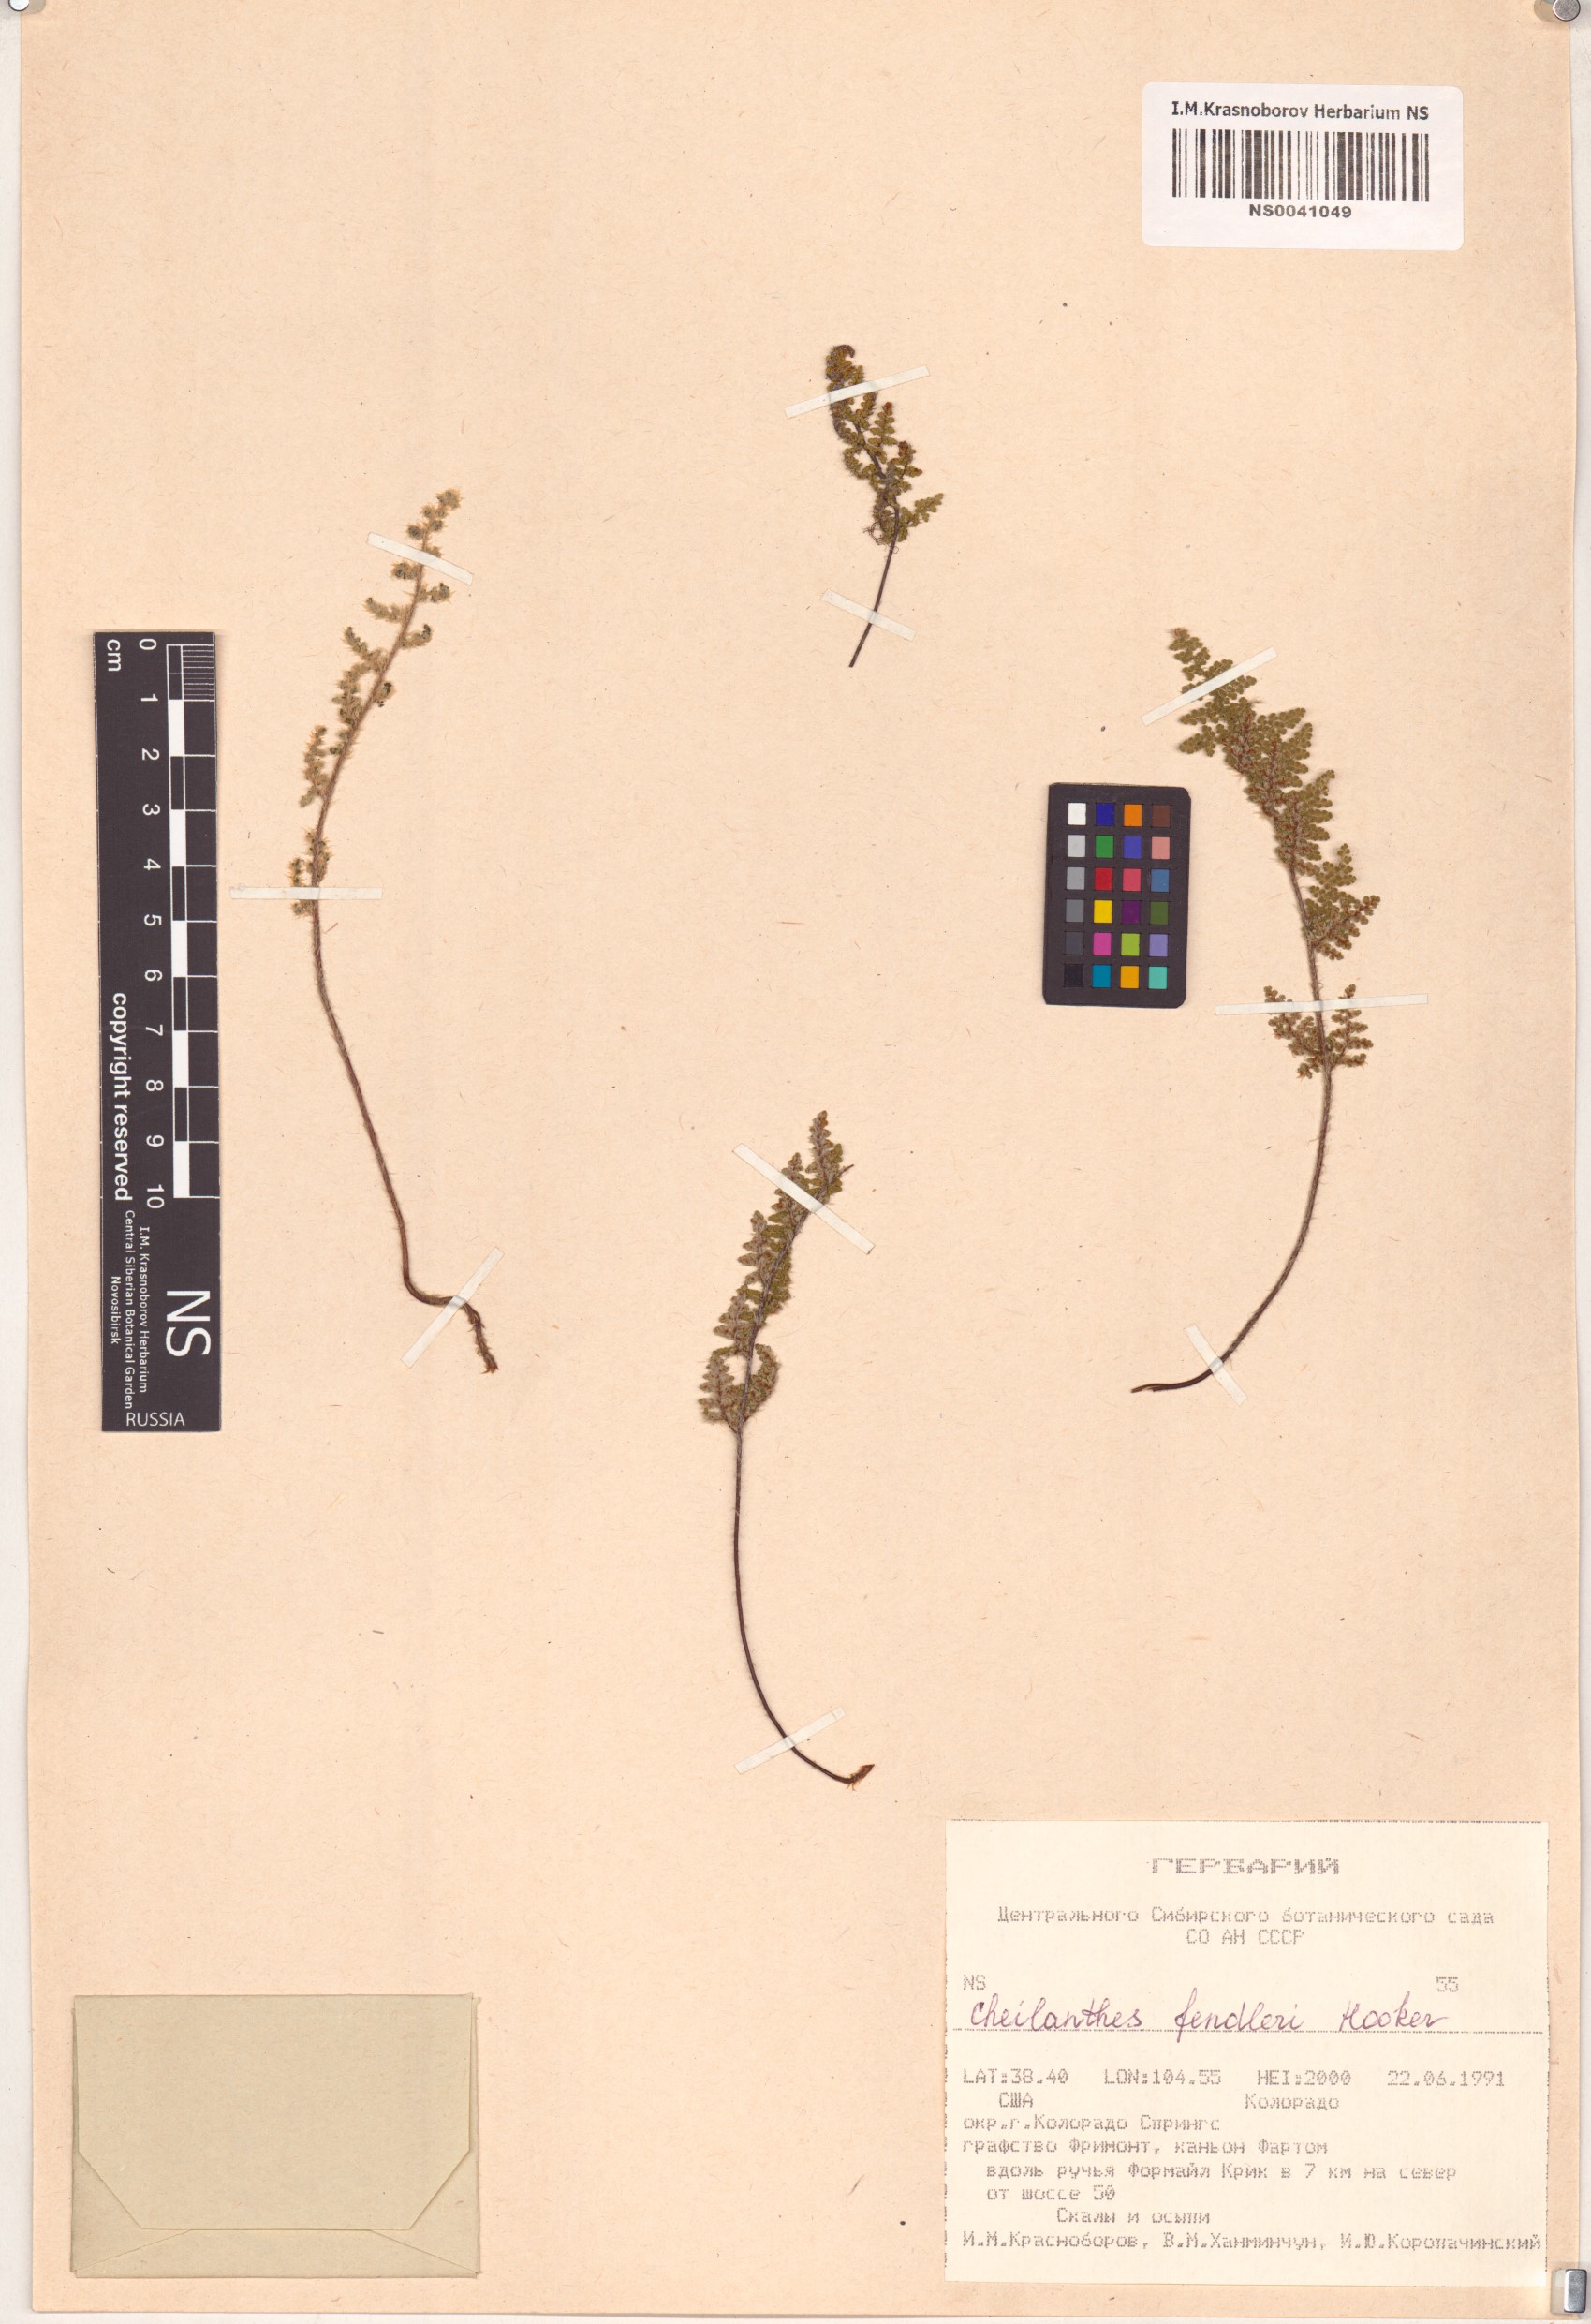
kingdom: Plantae
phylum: Tracheophyta
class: Polypodiopsida
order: Polypodiales
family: Pteridaceae
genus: Myriopteris
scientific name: Myriopteris fendleri
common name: Fendler's lip fern
